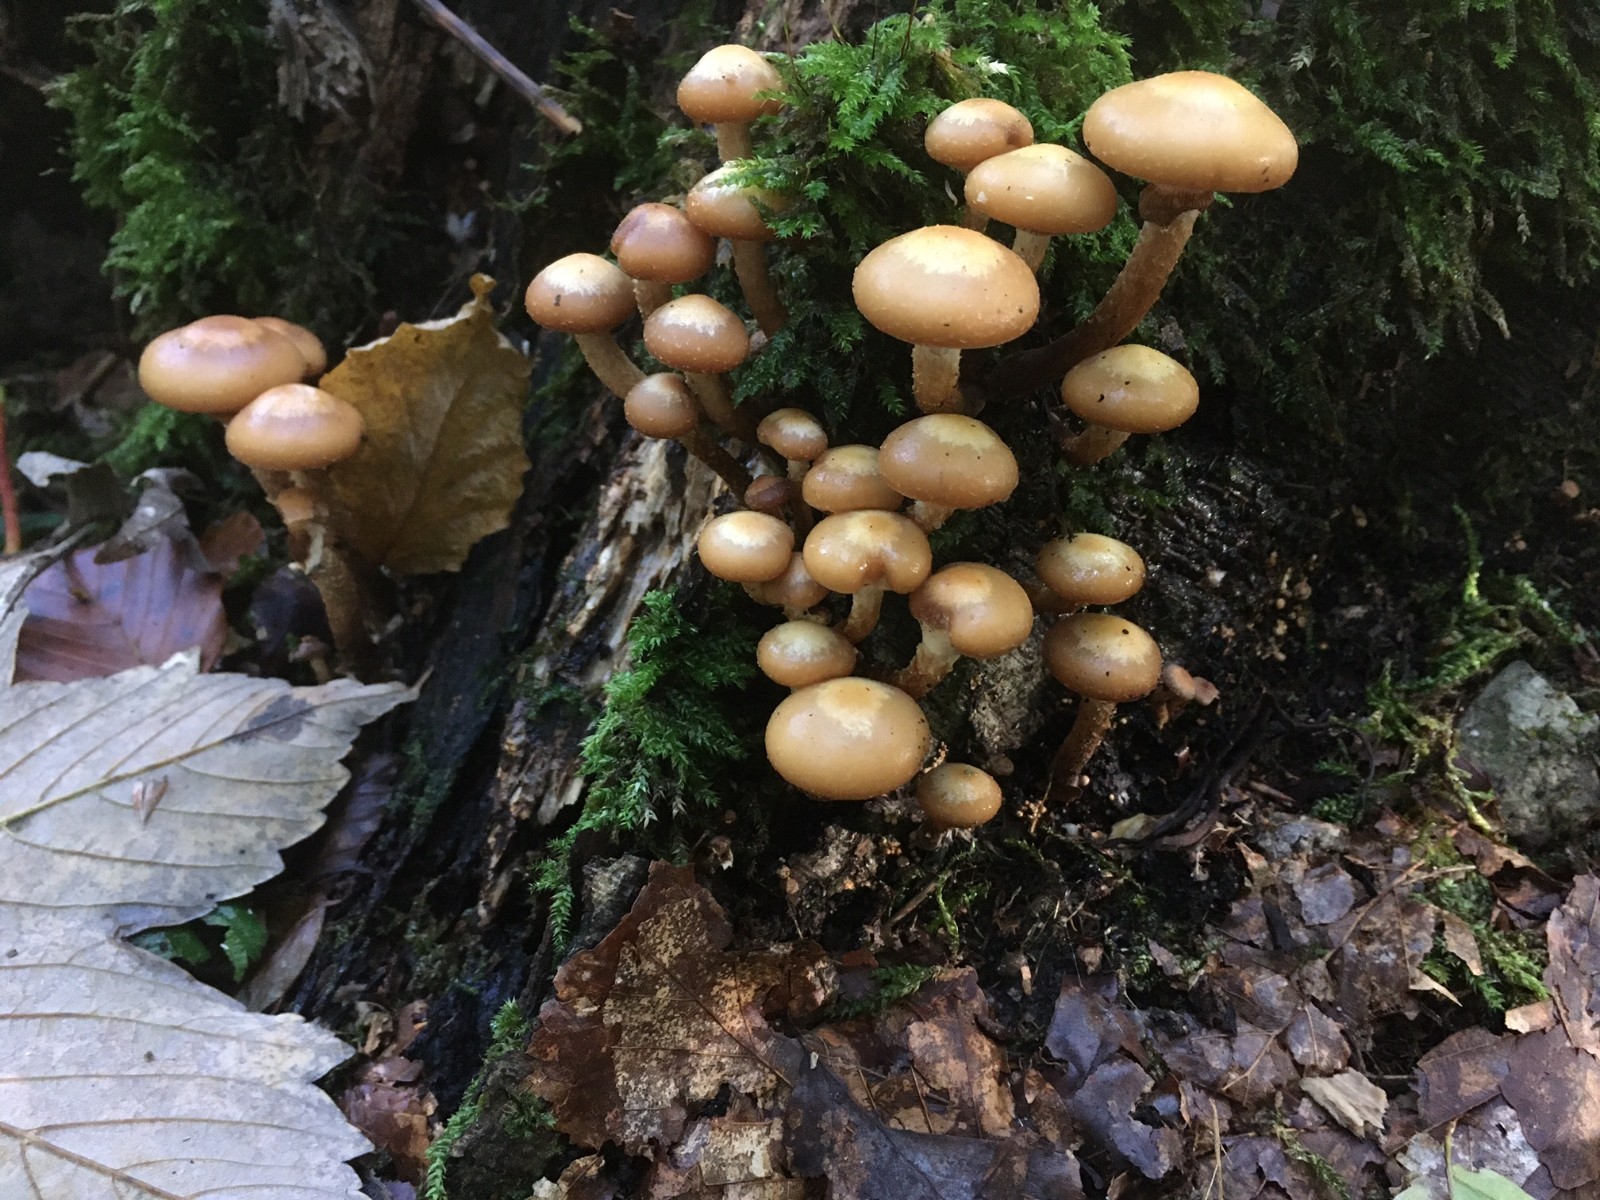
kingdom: Fungi
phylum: Basidiomycota
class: Agaricomycetes
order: Agaricales
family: Strophariaceae
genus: Kuehneromyces
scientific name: Kuehneromyces mutabilis
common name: foranderlig skælhat
